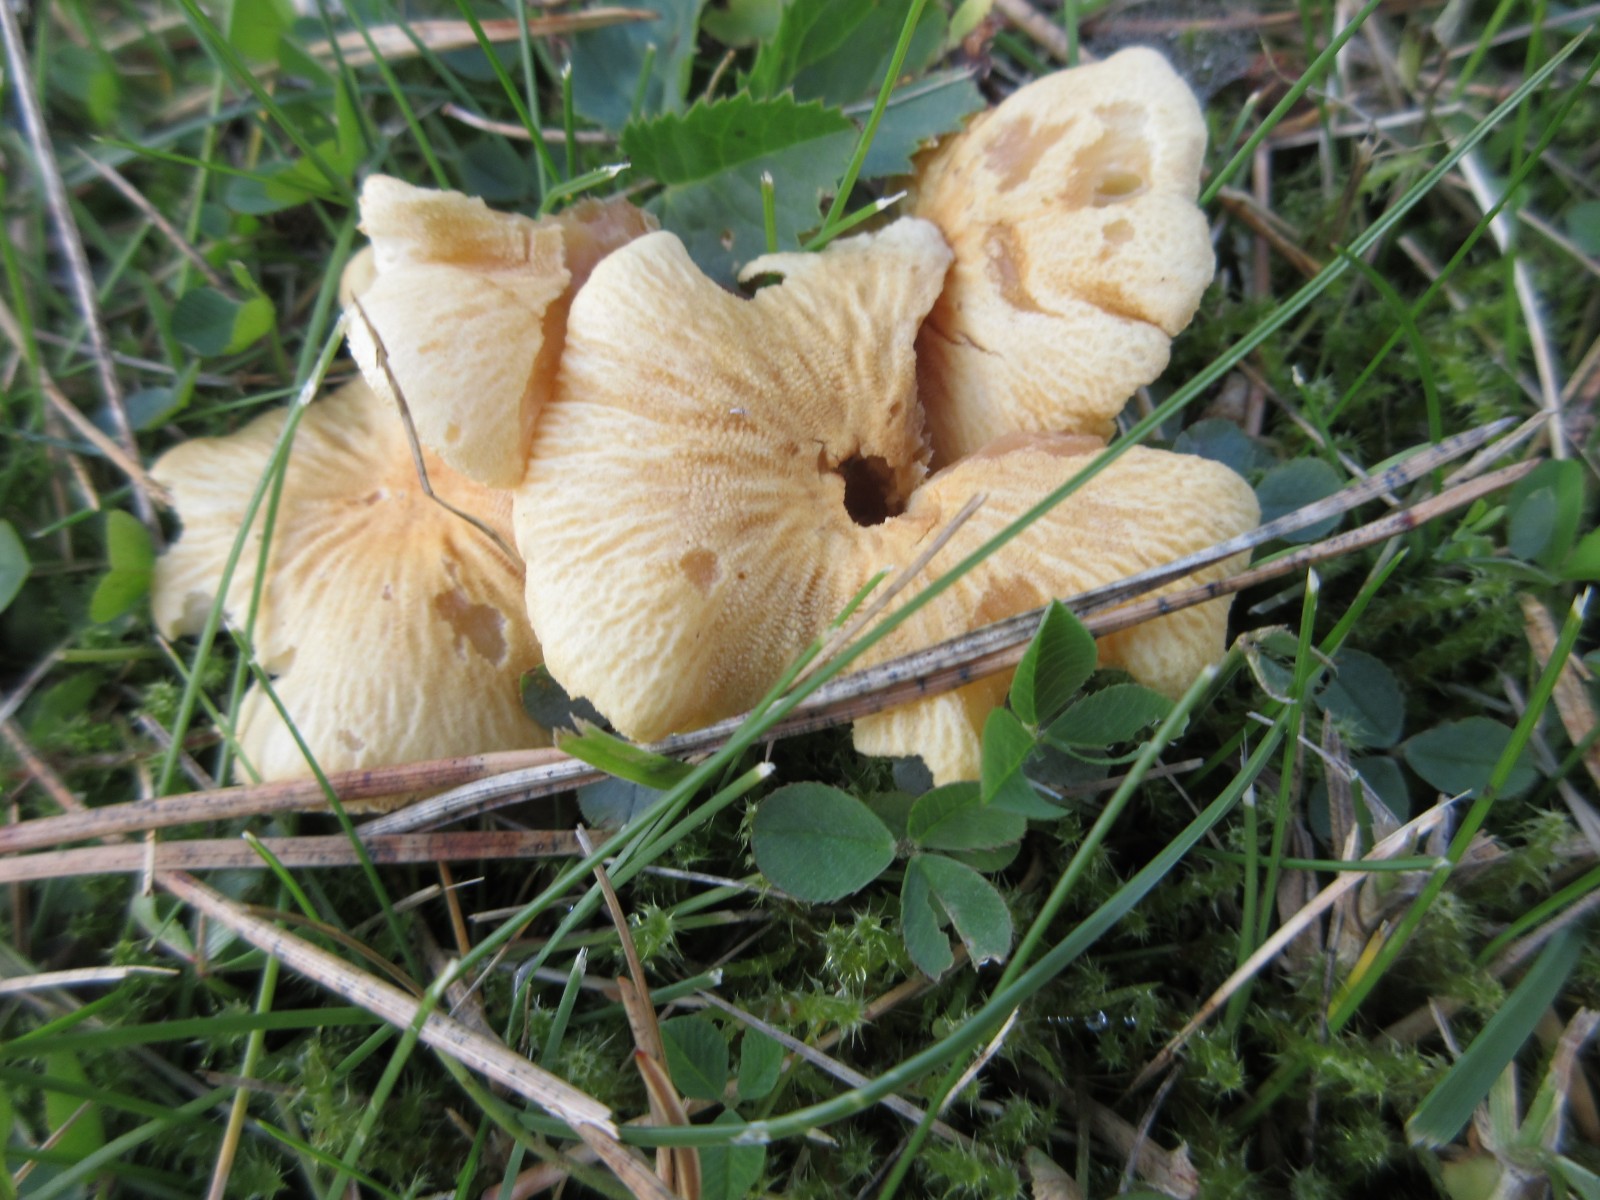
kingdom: Fungi
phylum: Basidiomycota
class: Agaricomycetes
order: Agaricales
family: Tricholomataceae
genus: Cystoderma
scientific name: Cystoderma amianthinum
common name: okkergul grynhat
